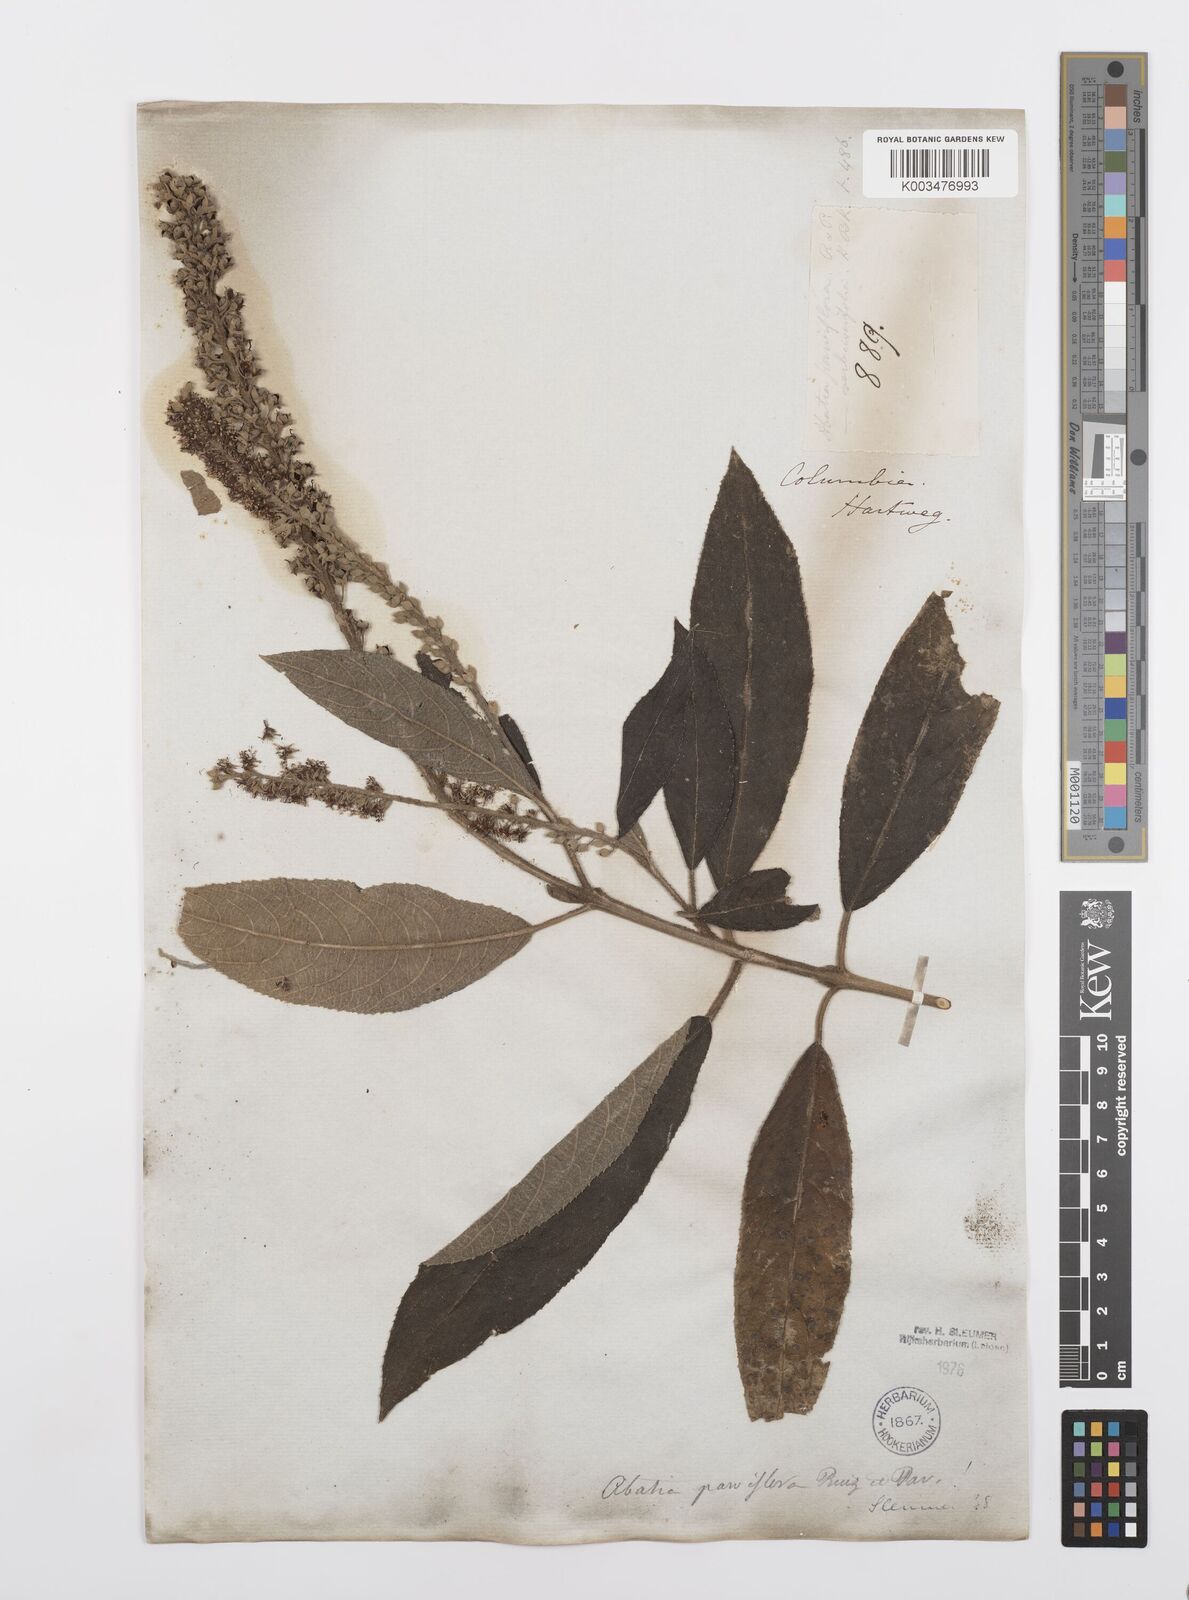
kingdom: Plantae
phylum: Tracheophyta
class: Magnoliopsida
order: Malpighiales
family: Salicaceae
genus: Abatia
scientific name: Abatia parviflora
